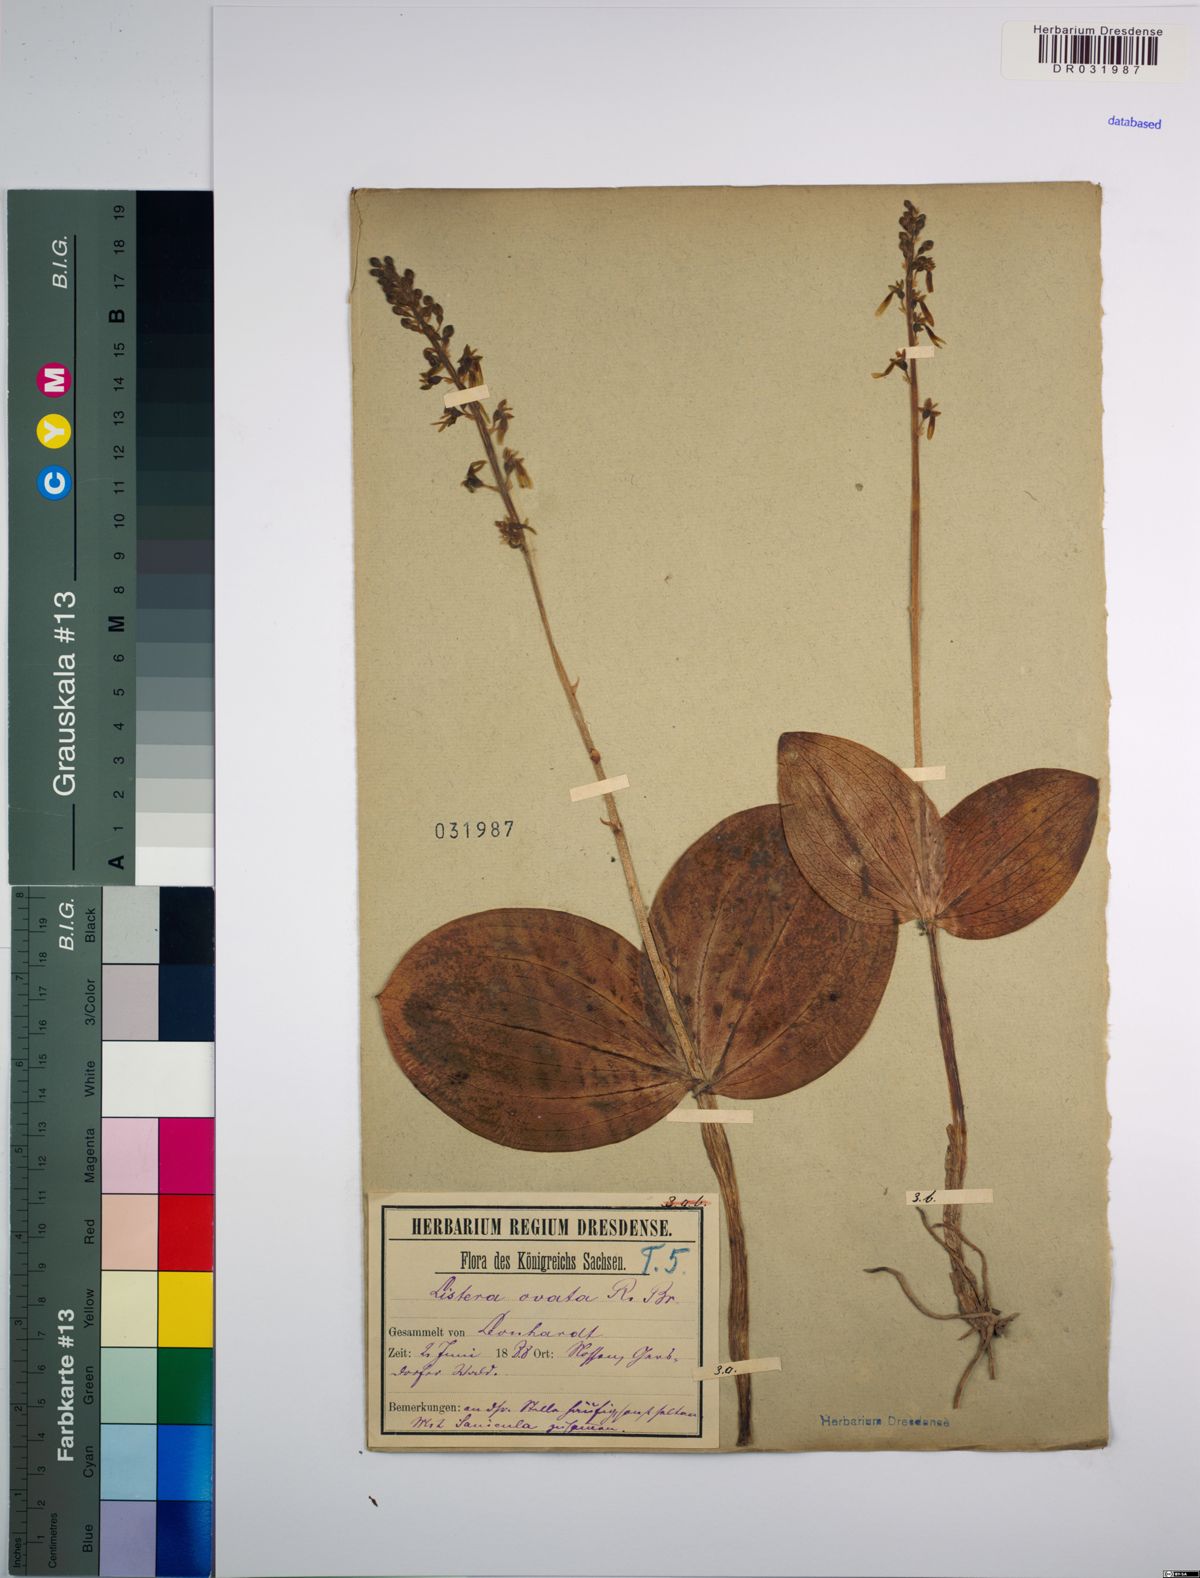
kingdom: Plantae
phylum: Tracheophyta
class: Liliopsida
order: Asparagales
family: Orchidaceae
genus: Neottia
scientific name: Neottia ovata
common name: Common twayblade
